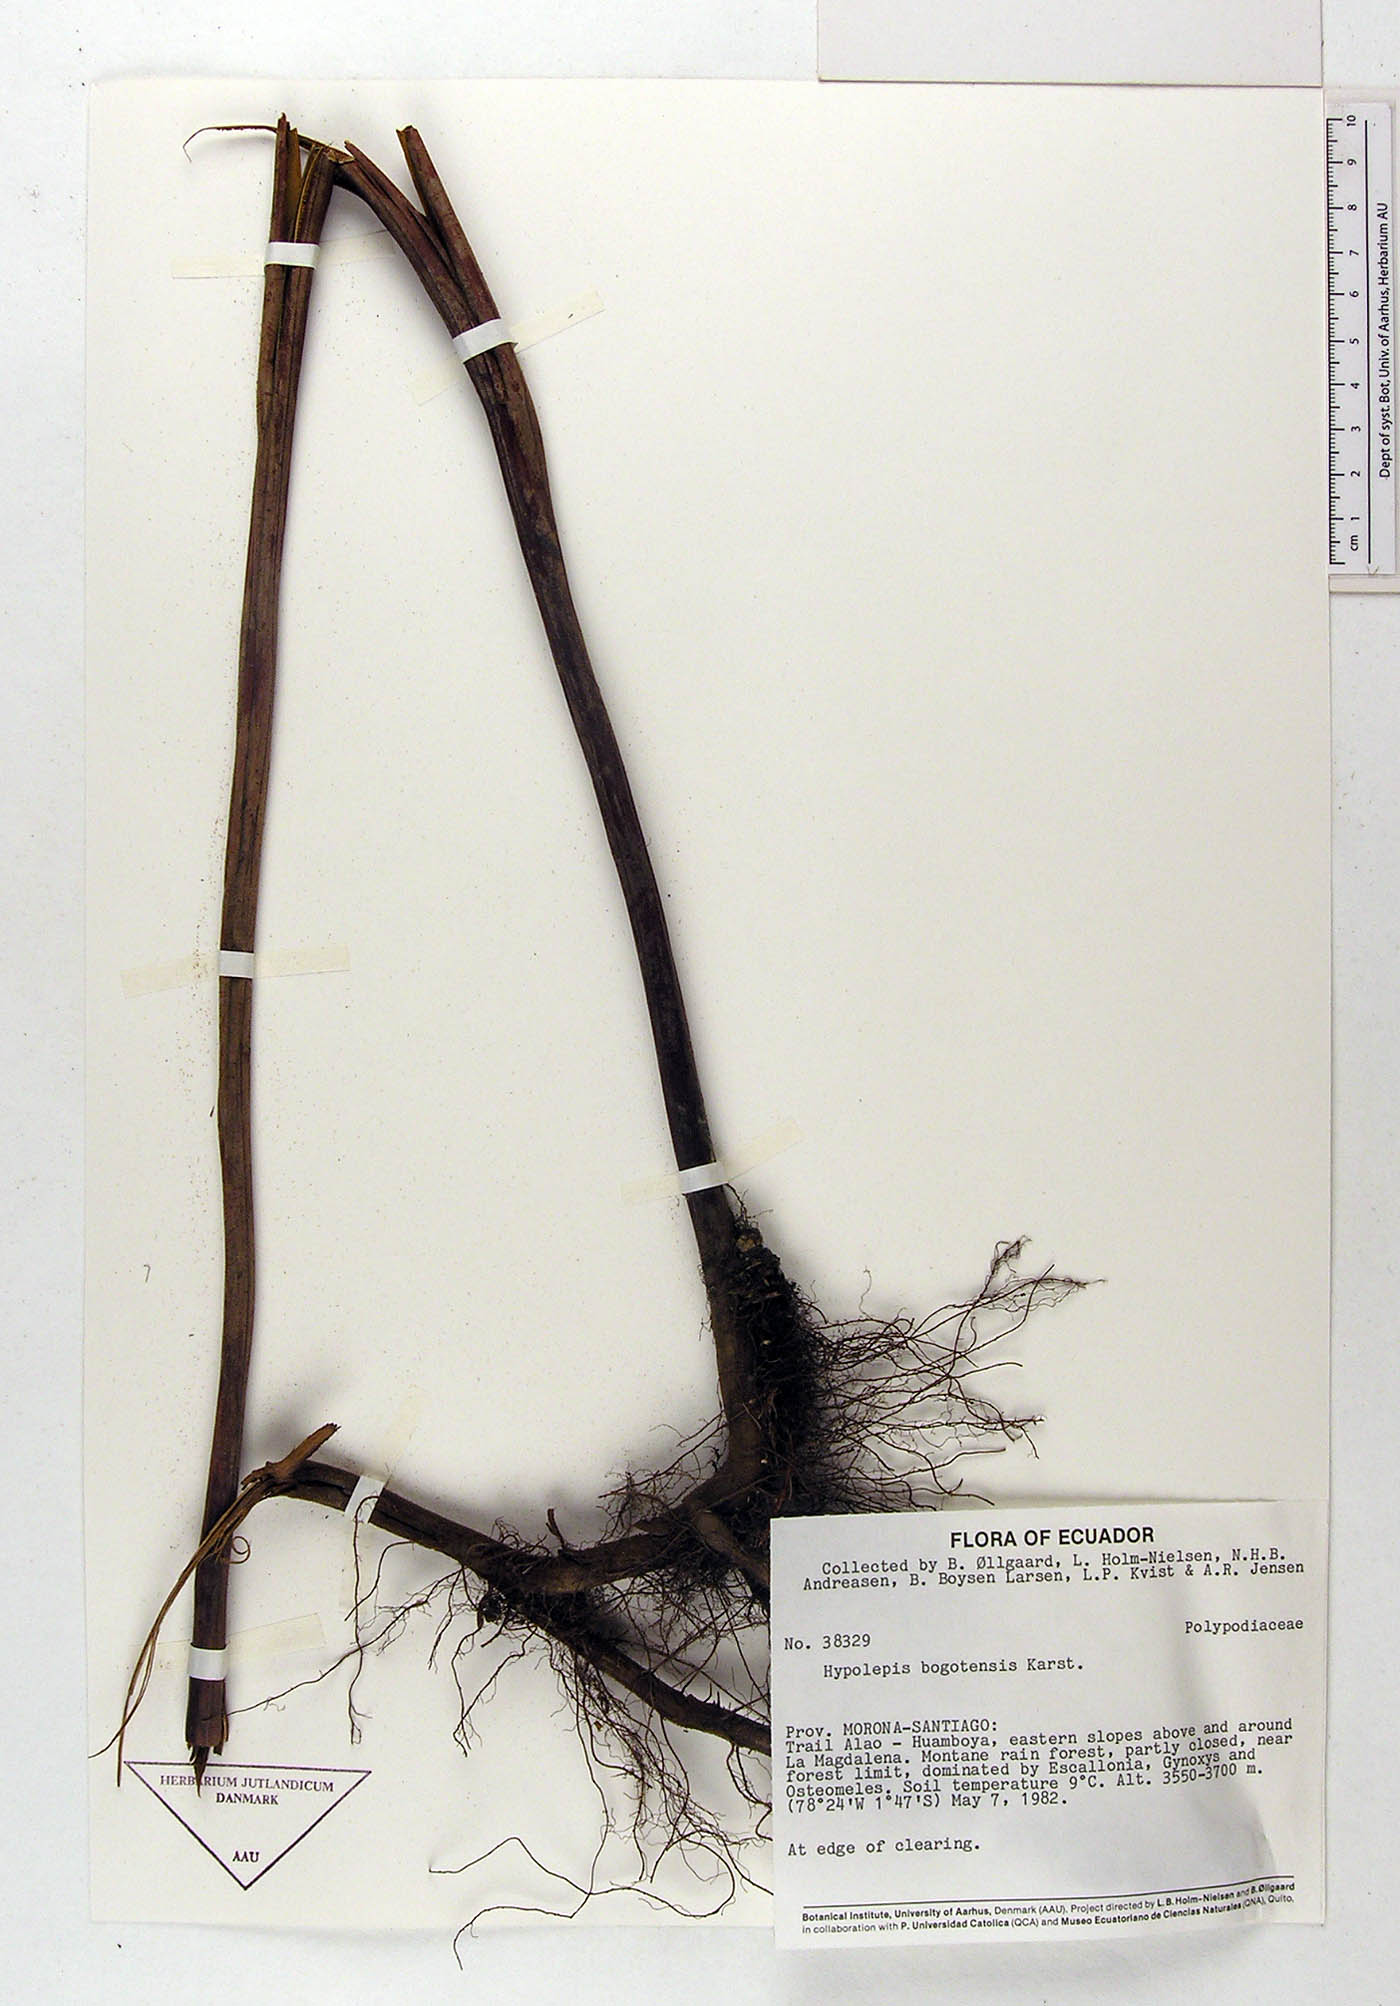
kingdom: Plantae
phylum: Tracheophyta
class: Polypodiopsida
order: Polypodiales
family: Dennstaedtiaceae
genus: Hypolepis
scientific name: Hypolepis bogotensis
